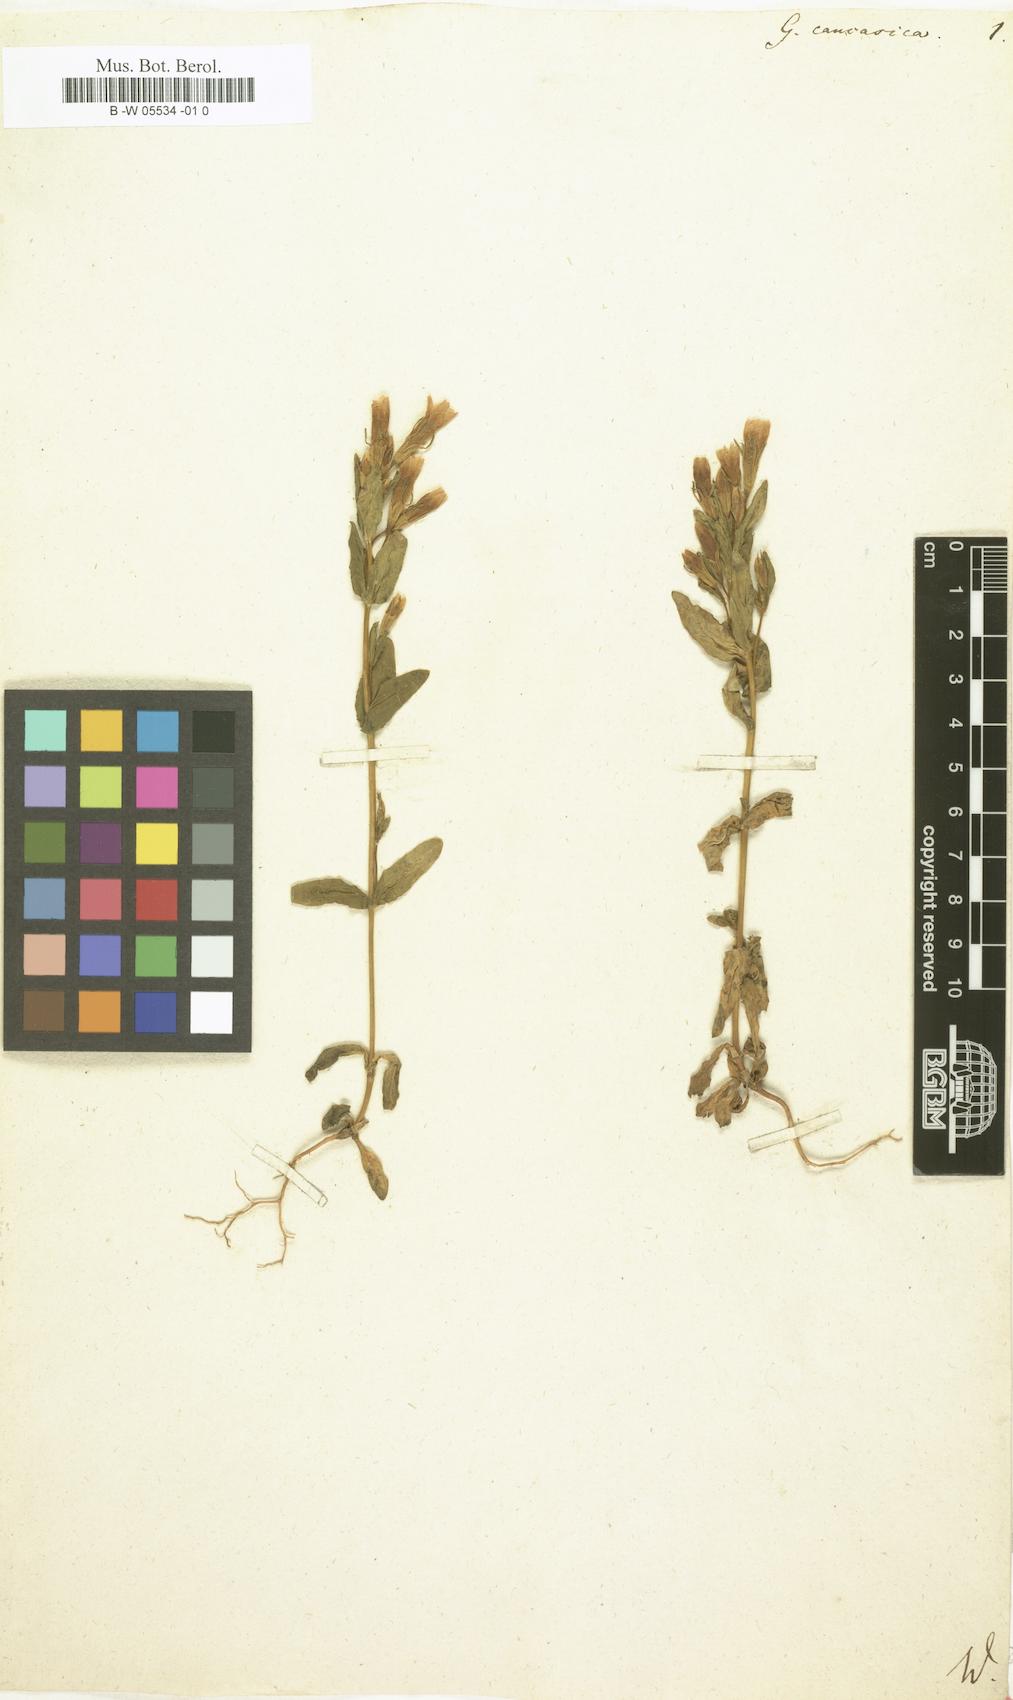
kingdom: Plantae
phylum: Tracheophyta
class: Magnoliopsida
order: Gentianales
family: Gentianaceae
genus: Gentianella
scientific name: Gentianella
